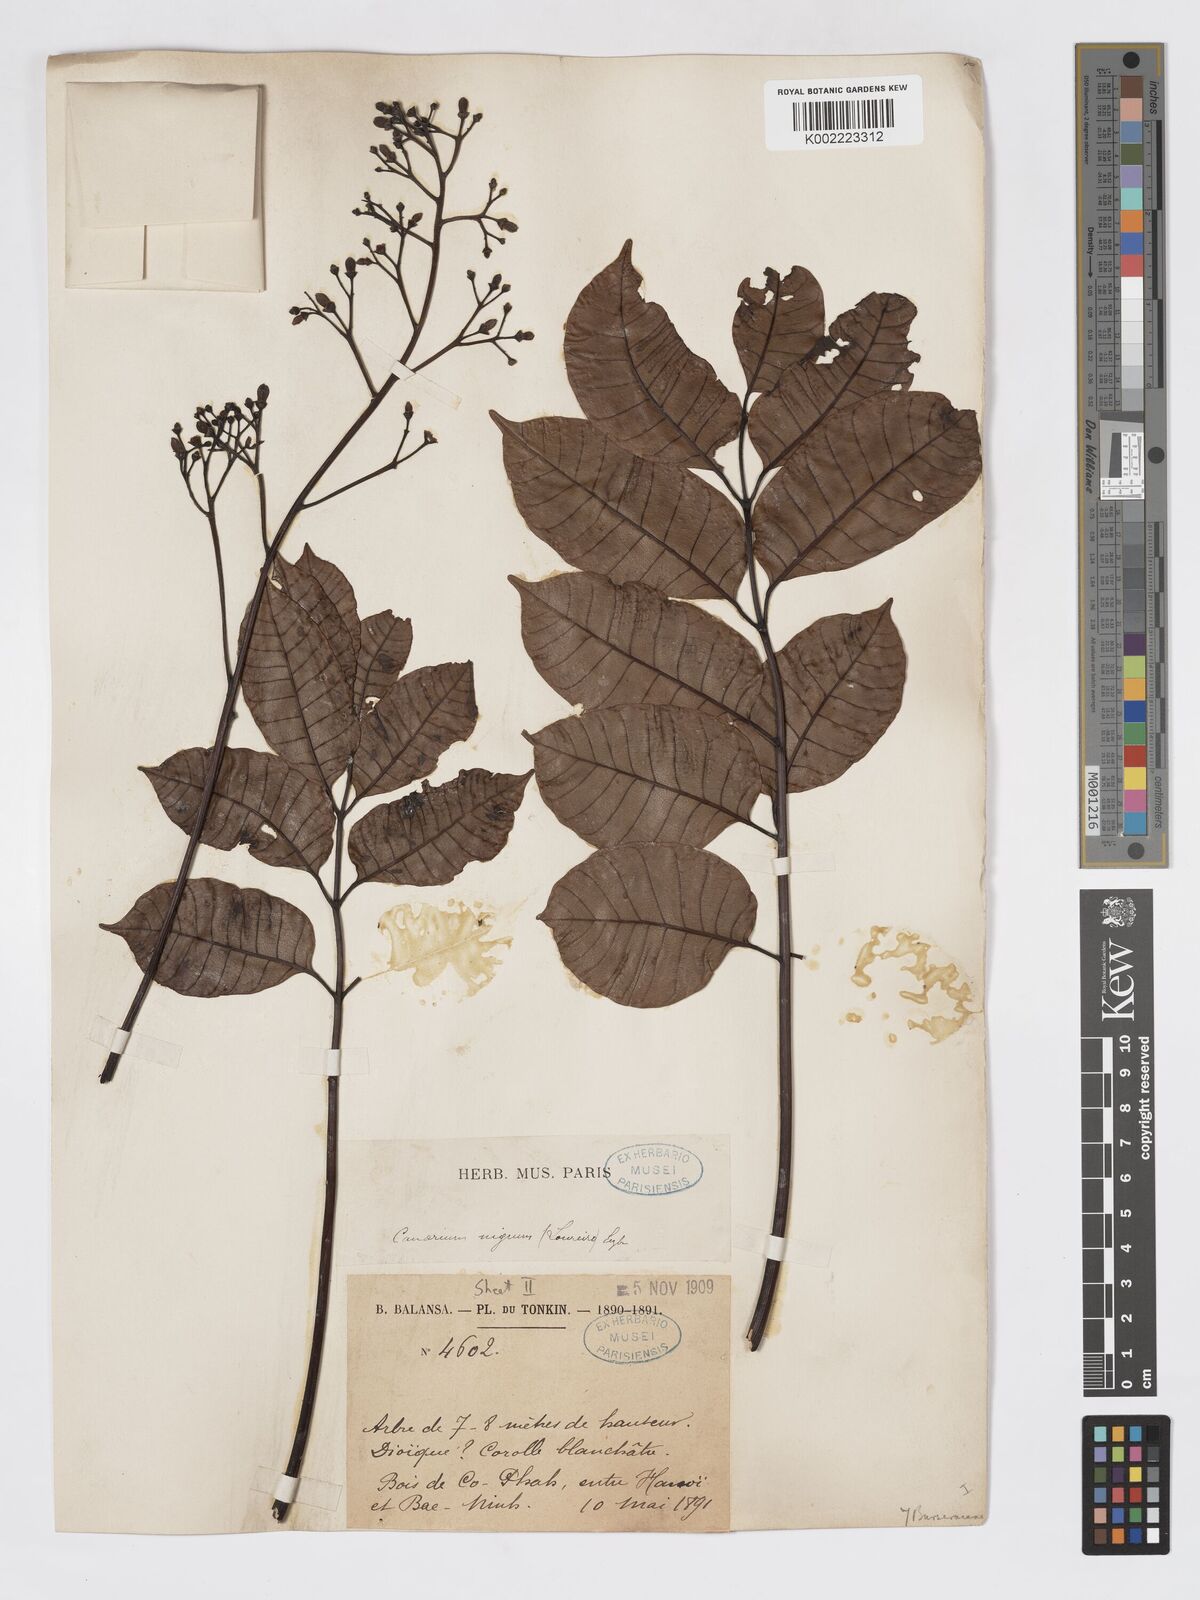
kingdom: Plantae
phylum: Tracheophyta
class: Magnoliopsida
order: Sapindales
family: Burseraceae
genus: Canarium
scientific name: Canarium
